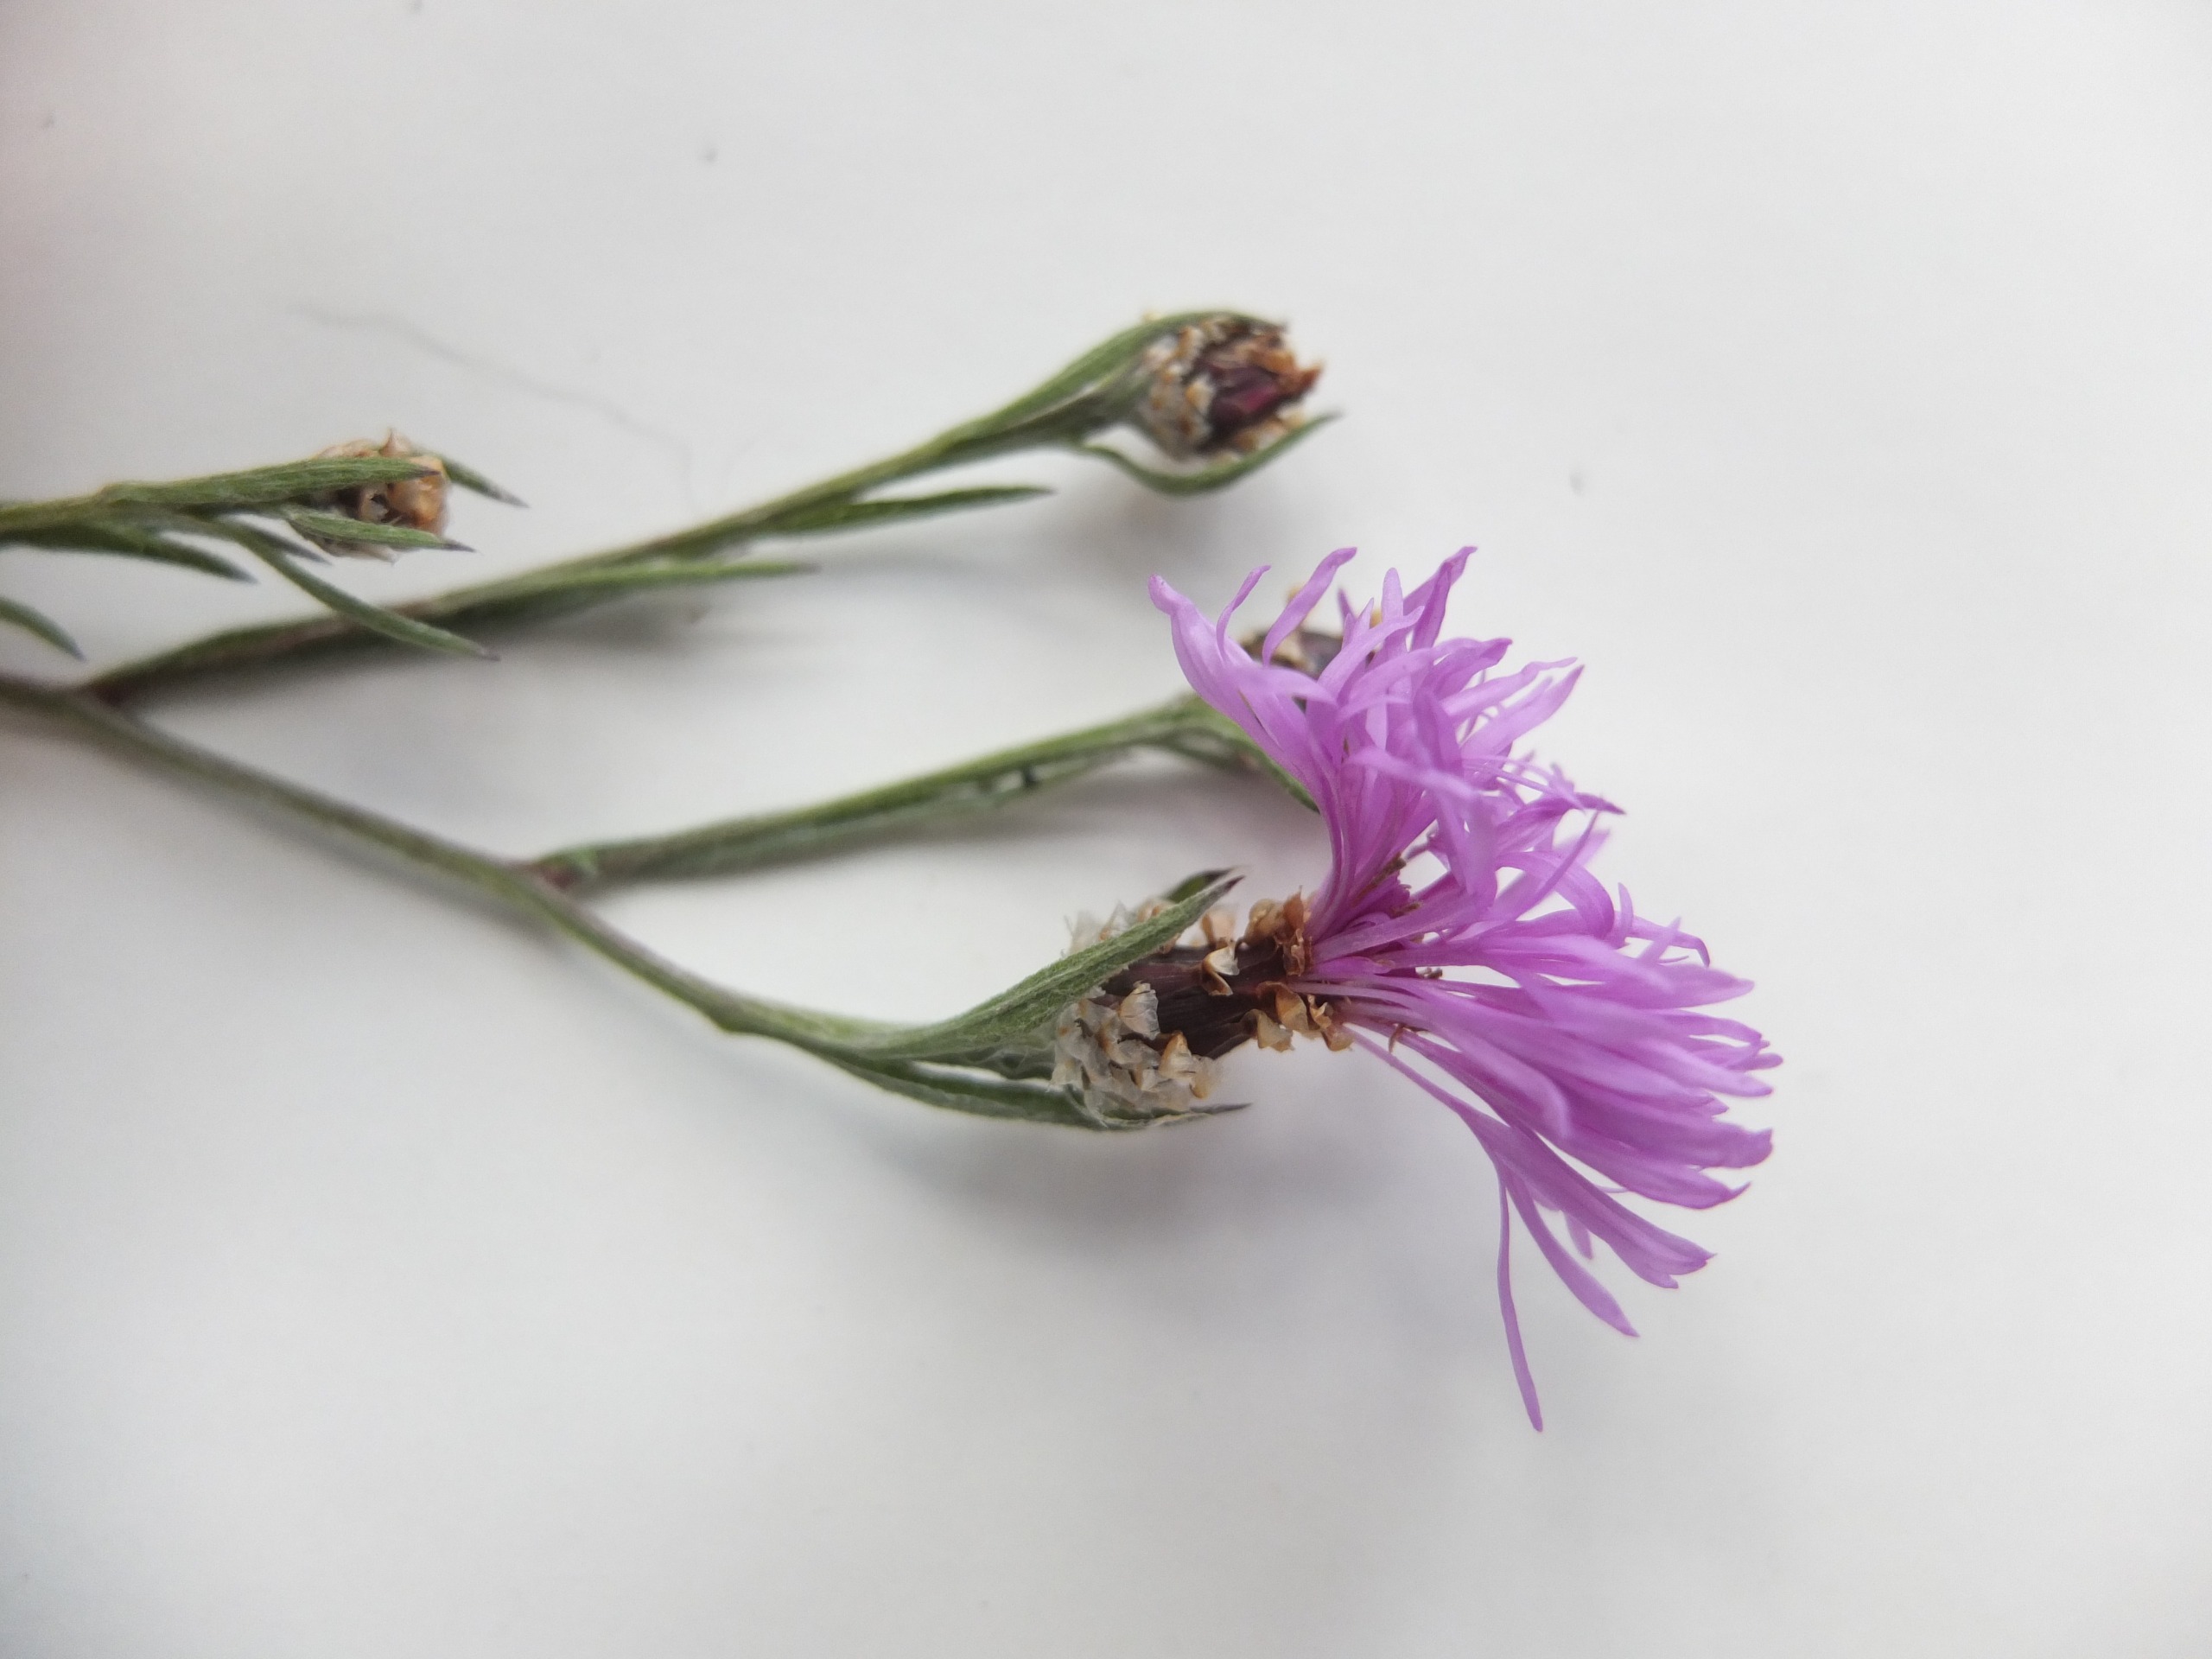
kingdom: Plantae
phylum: Tracheophyta
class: Magnoliopsida
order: Asterales
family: Asteraceae
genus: Centaurea
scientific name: Centaurea jacea
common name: Almindelig knopurt
